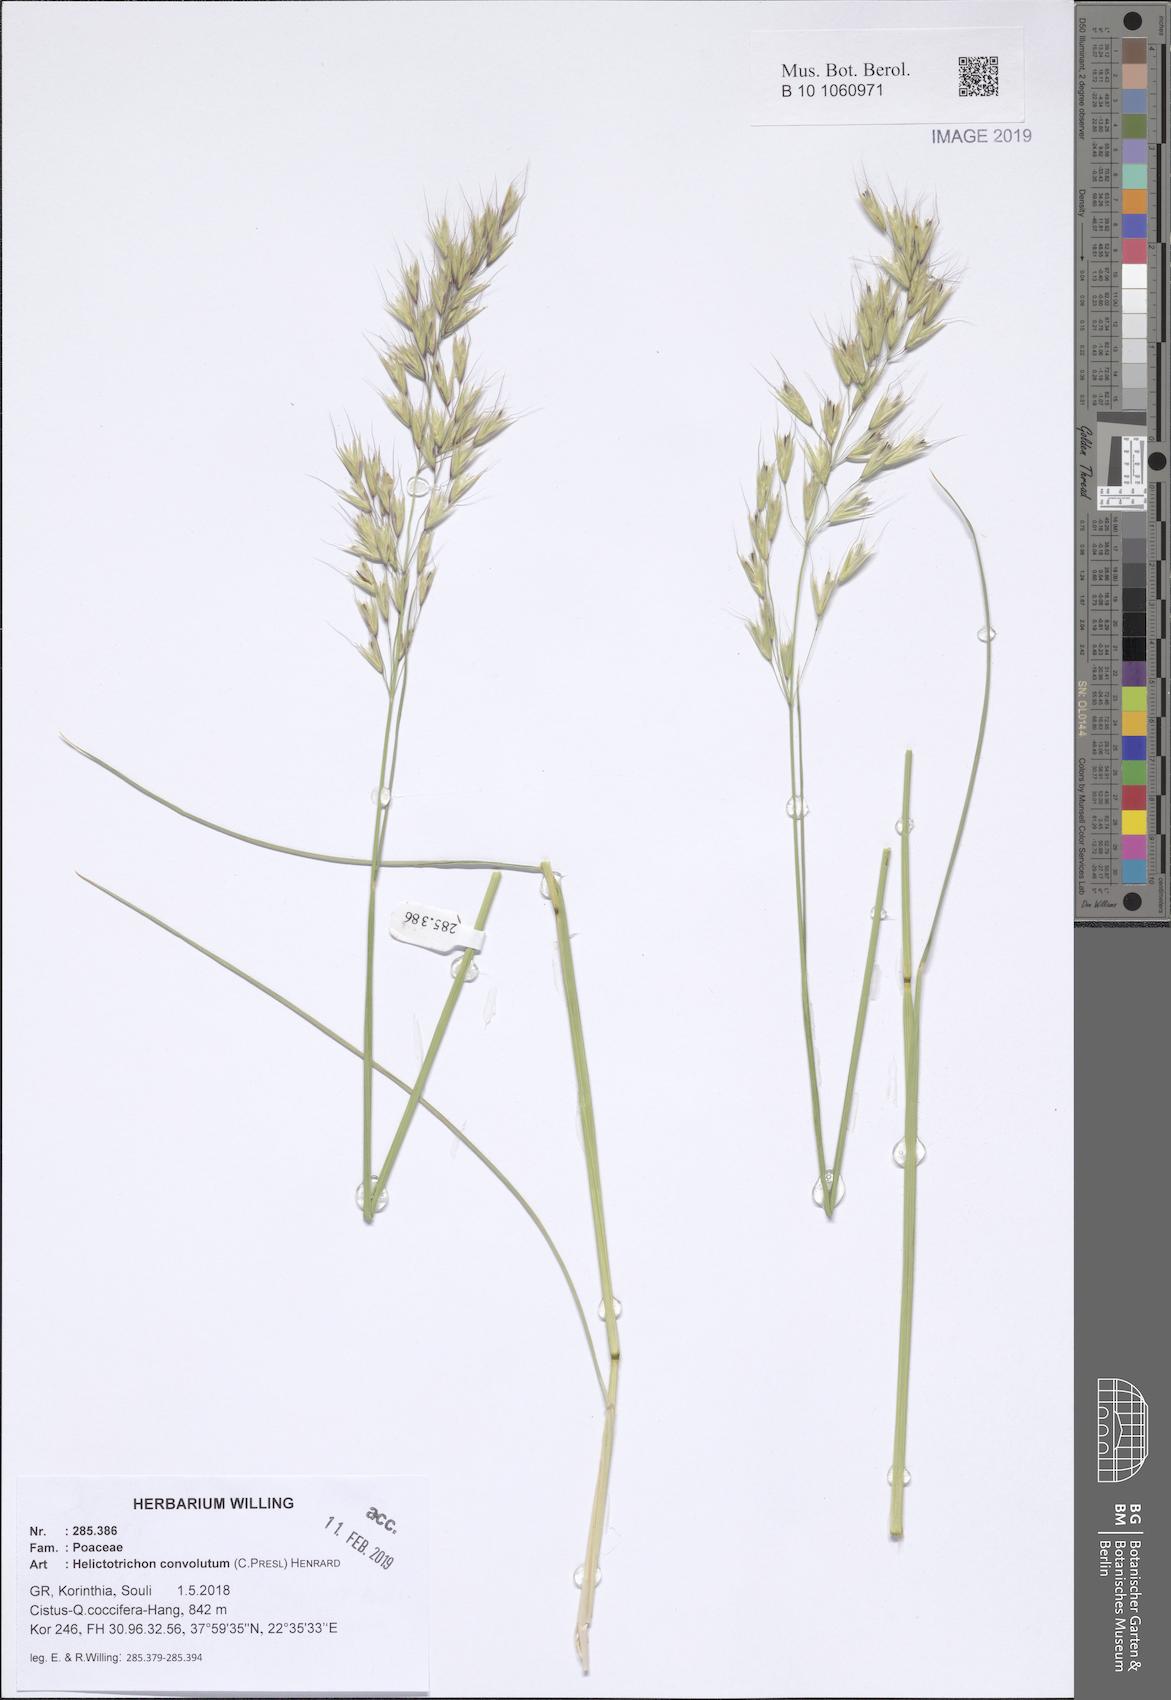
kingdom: Plantae
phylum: Tracheophyta
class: Liliopsida
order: Poales
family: Poaceae
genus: Helictotrichon
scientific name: Helictotrichon convolutum
